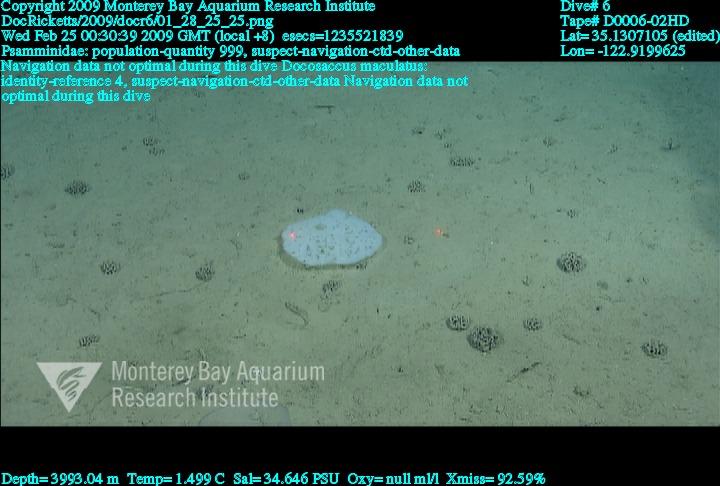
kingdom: Animalia
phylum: Porifera
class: Hexactinellida
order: Lyssacinosida
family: Euplectellidae
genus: Docosaccus
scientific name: Docosaccus maculatus
